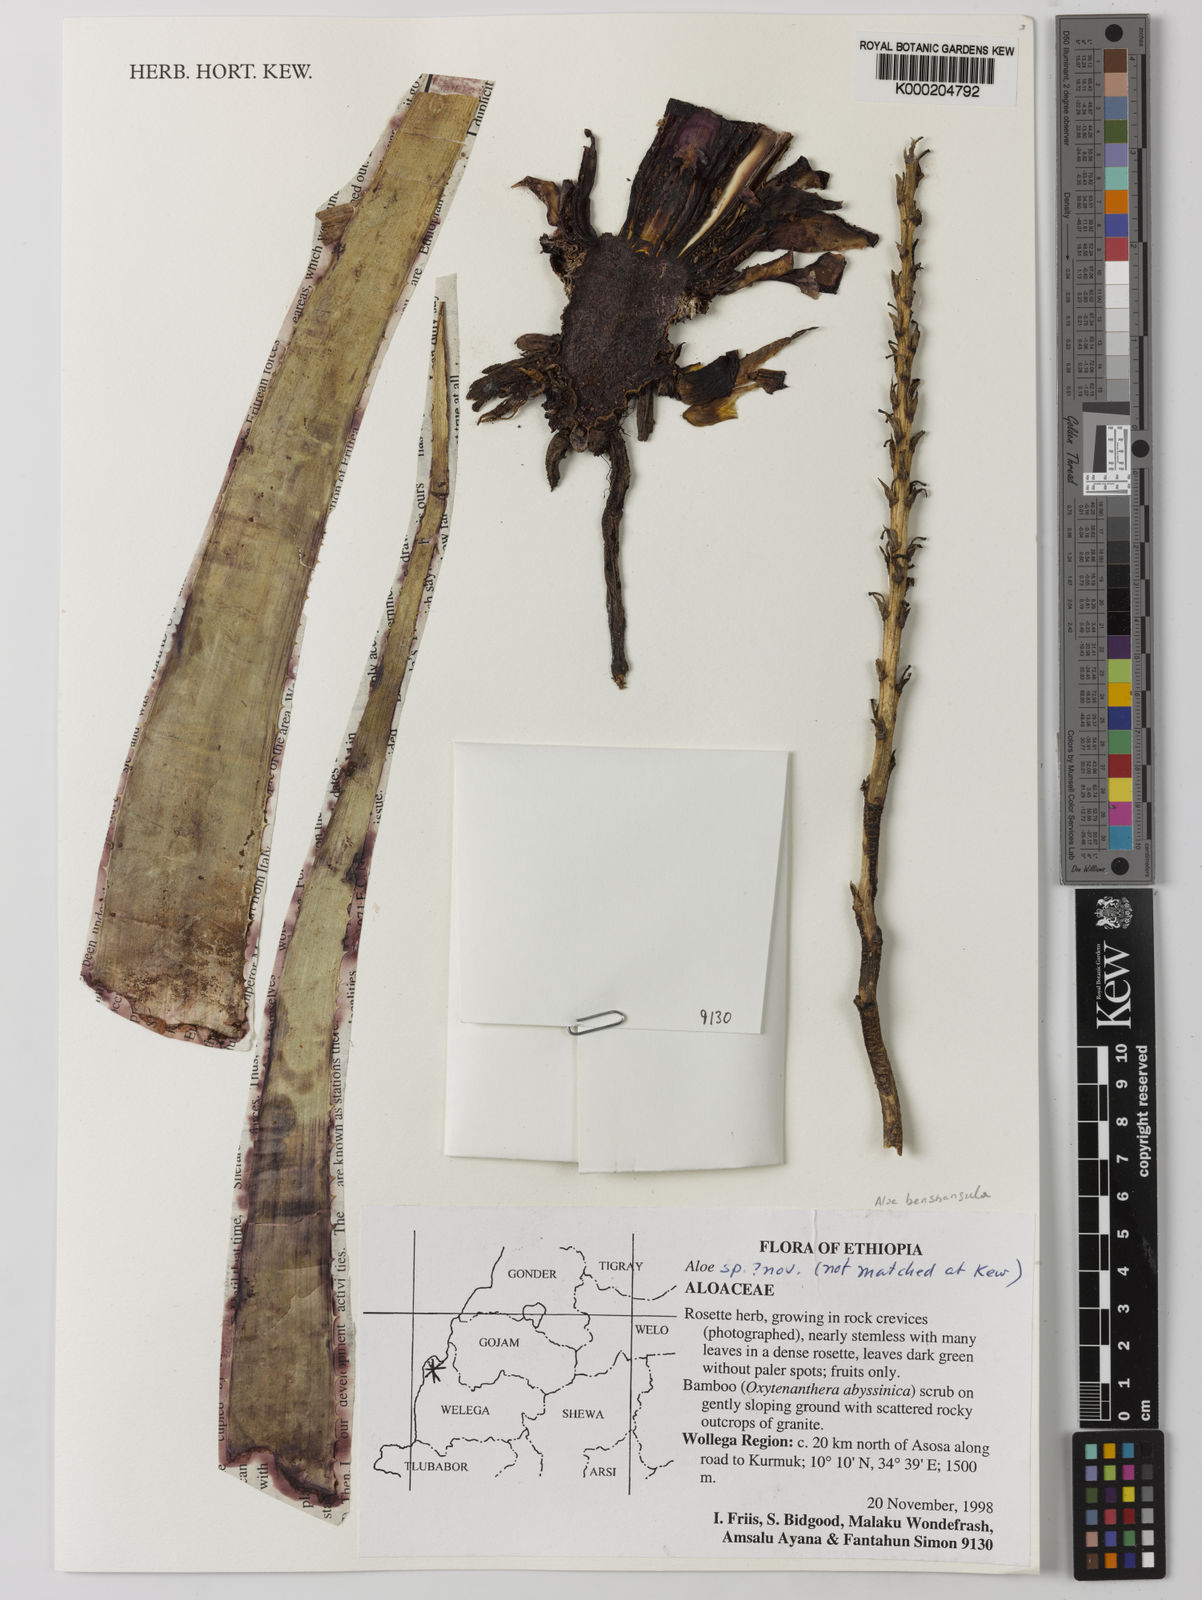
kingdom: Plantae
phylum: Tracheophyta
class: Liliopsida
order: Asparagales
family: Asphodelaceae
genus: Aloe
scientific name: Aloe
